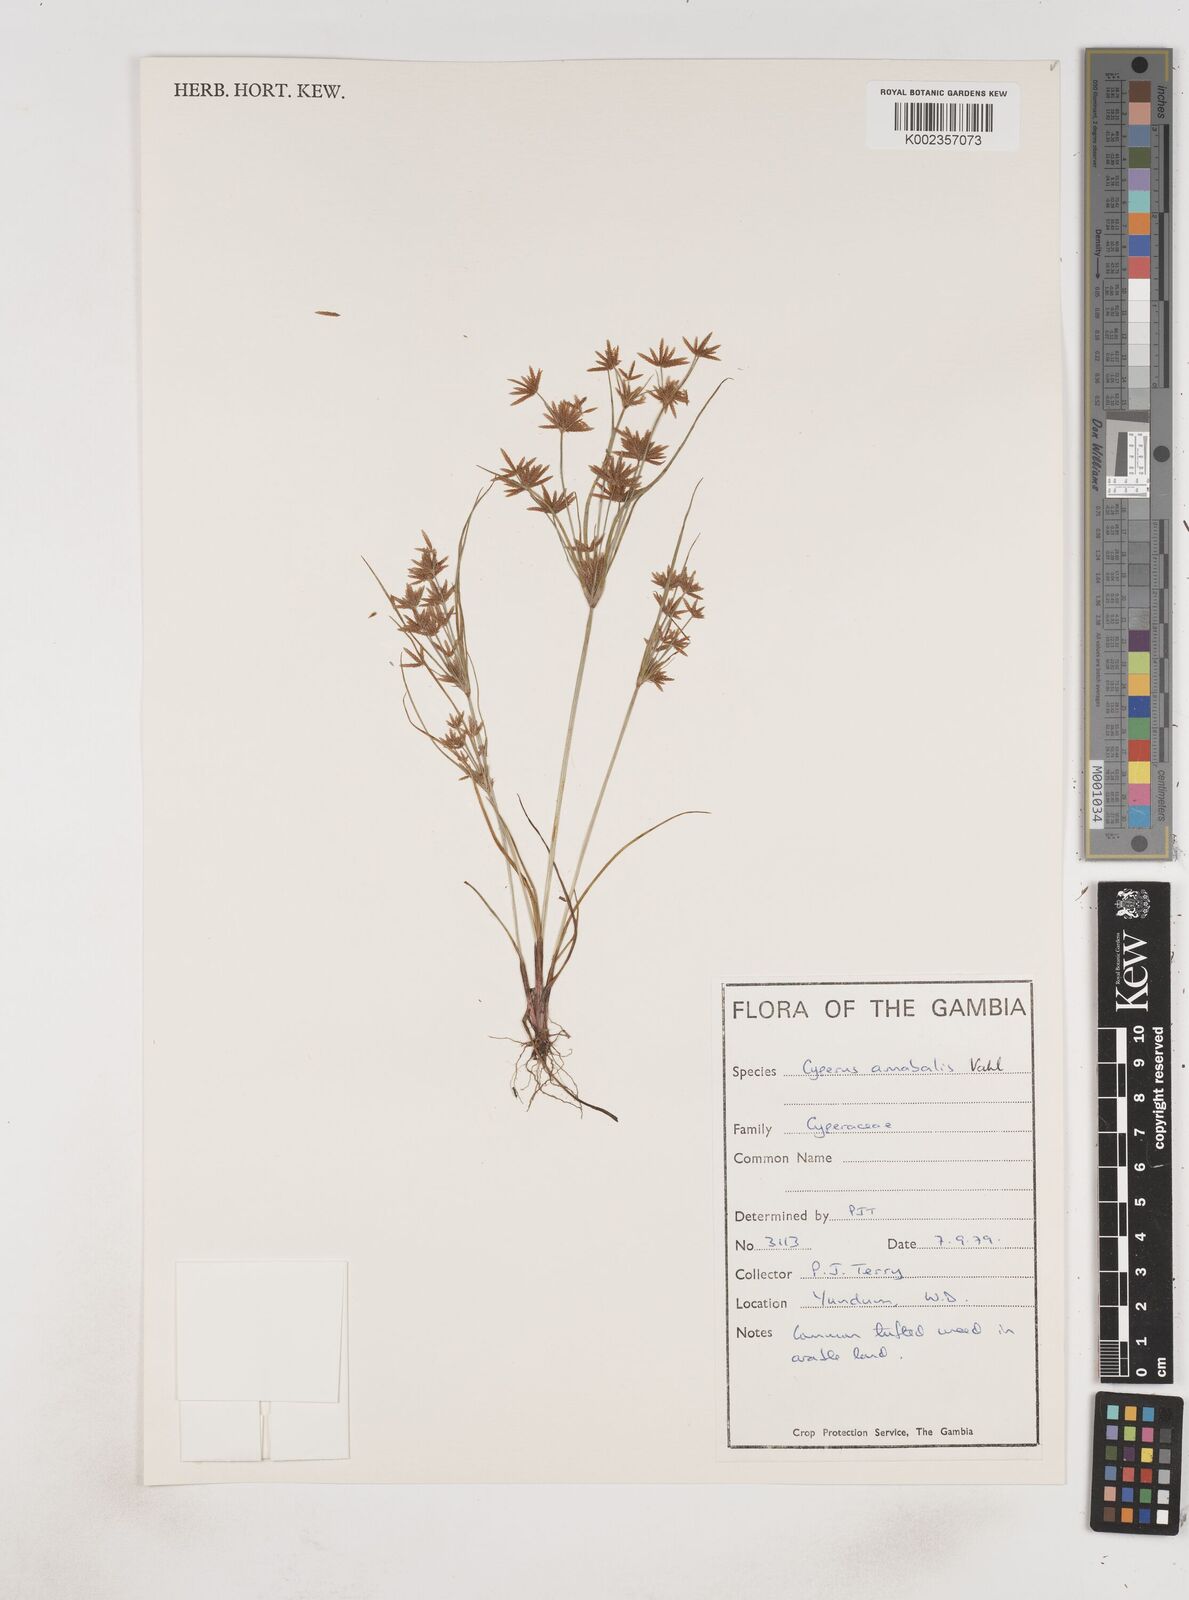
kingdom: Plantae
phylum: Tracheophyta
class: Liliopsida
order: Poales
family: Cyperaceae
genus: Cyperus
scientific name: Cyperus amabilis
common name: Foothill flat sedge
